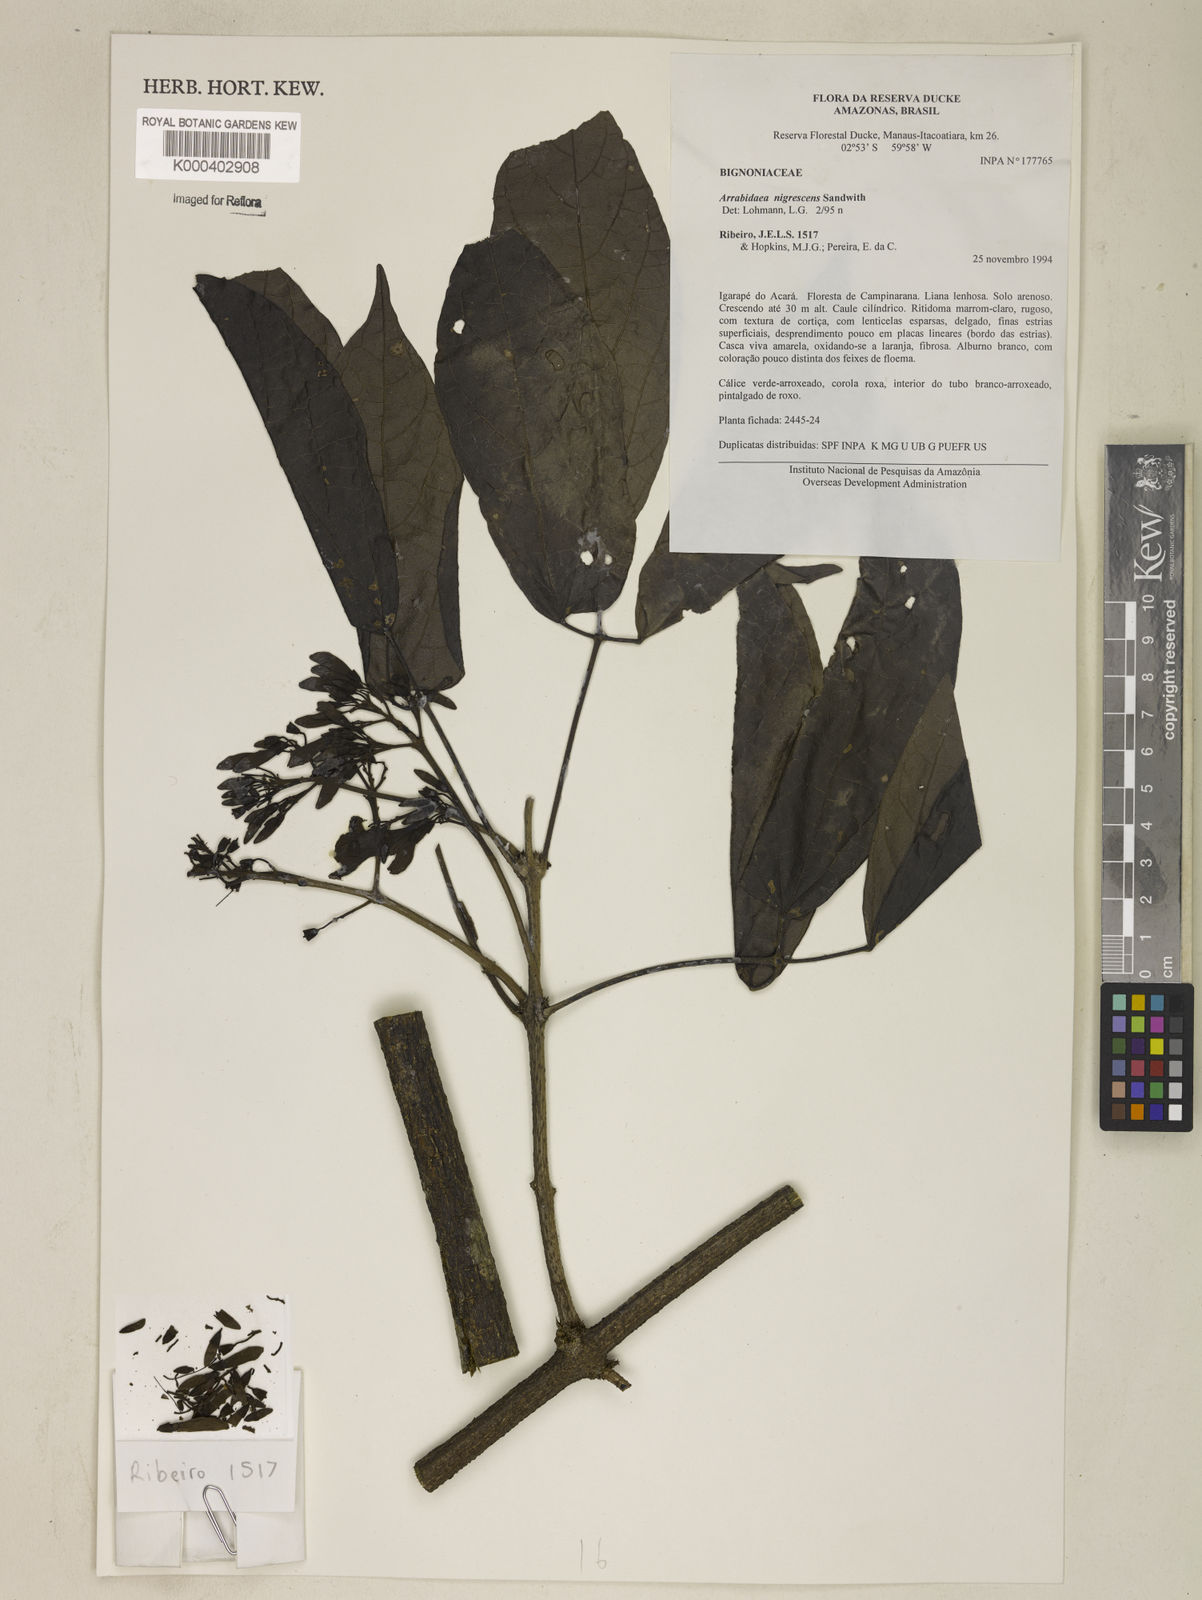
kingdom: Plantae
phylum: Tracheophyta
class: Magnoliopsida
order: Lamiales
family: Bignoniaceae
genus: Fridericia
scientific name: Fridericia nigrescens
